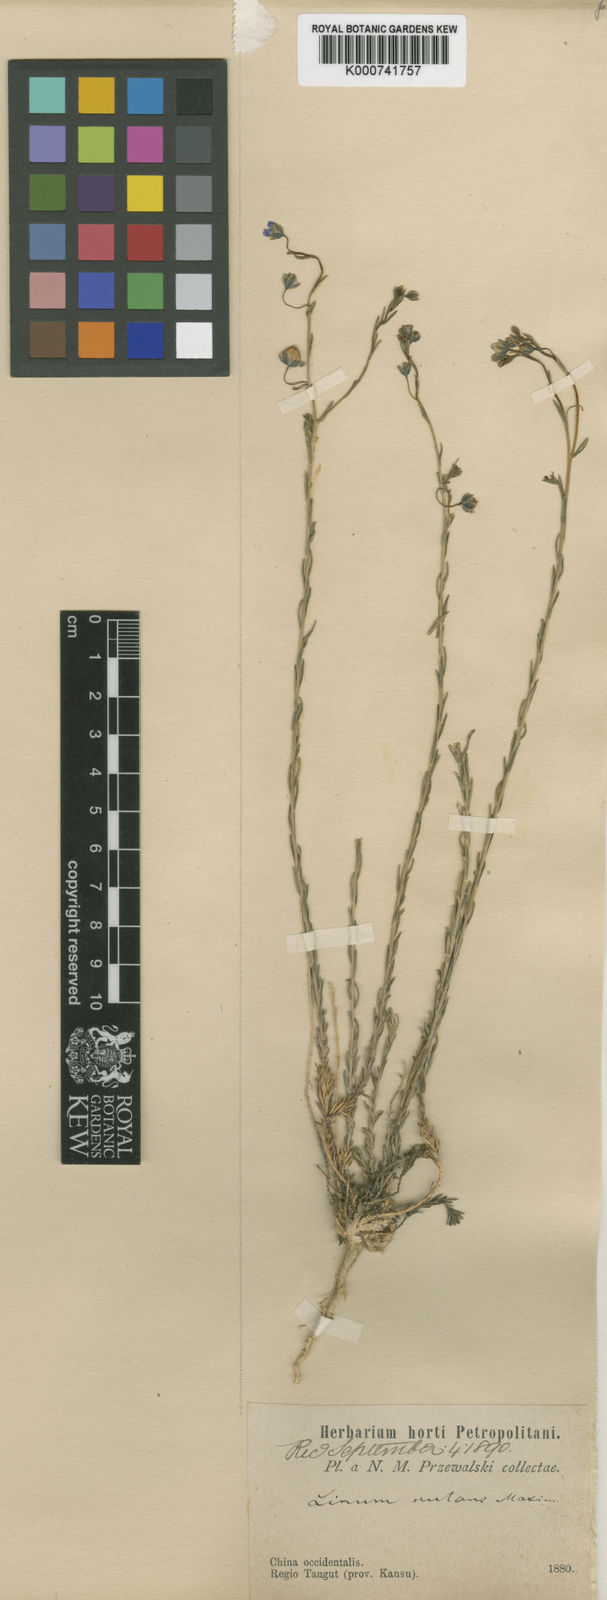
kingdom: Plantae
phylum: Tracheophyta
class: Magnoliopsida
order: Malpighiales
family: Linaceae
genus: Linum
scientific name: Linum nutans
